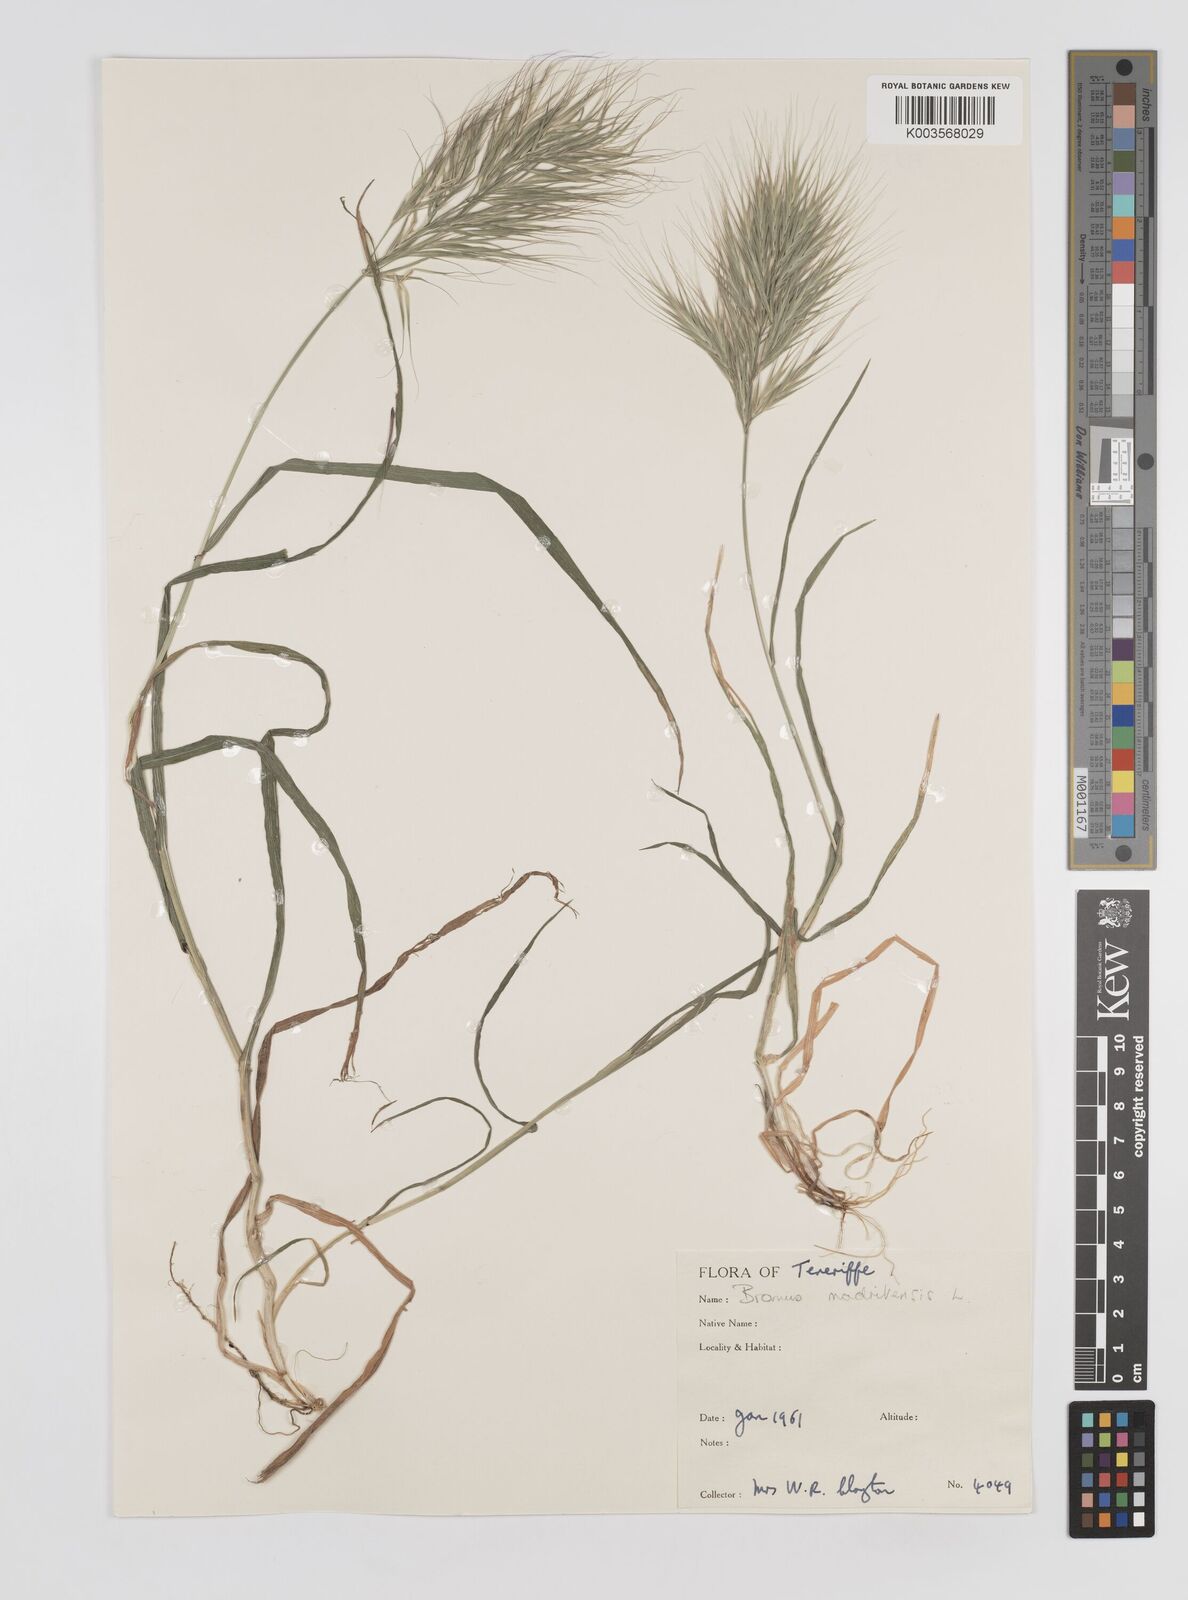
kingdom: Plantae
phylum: Tracheophyta
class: Liliopsida
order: Poales
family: Poaceae
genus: Bromus
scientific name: Bromus
